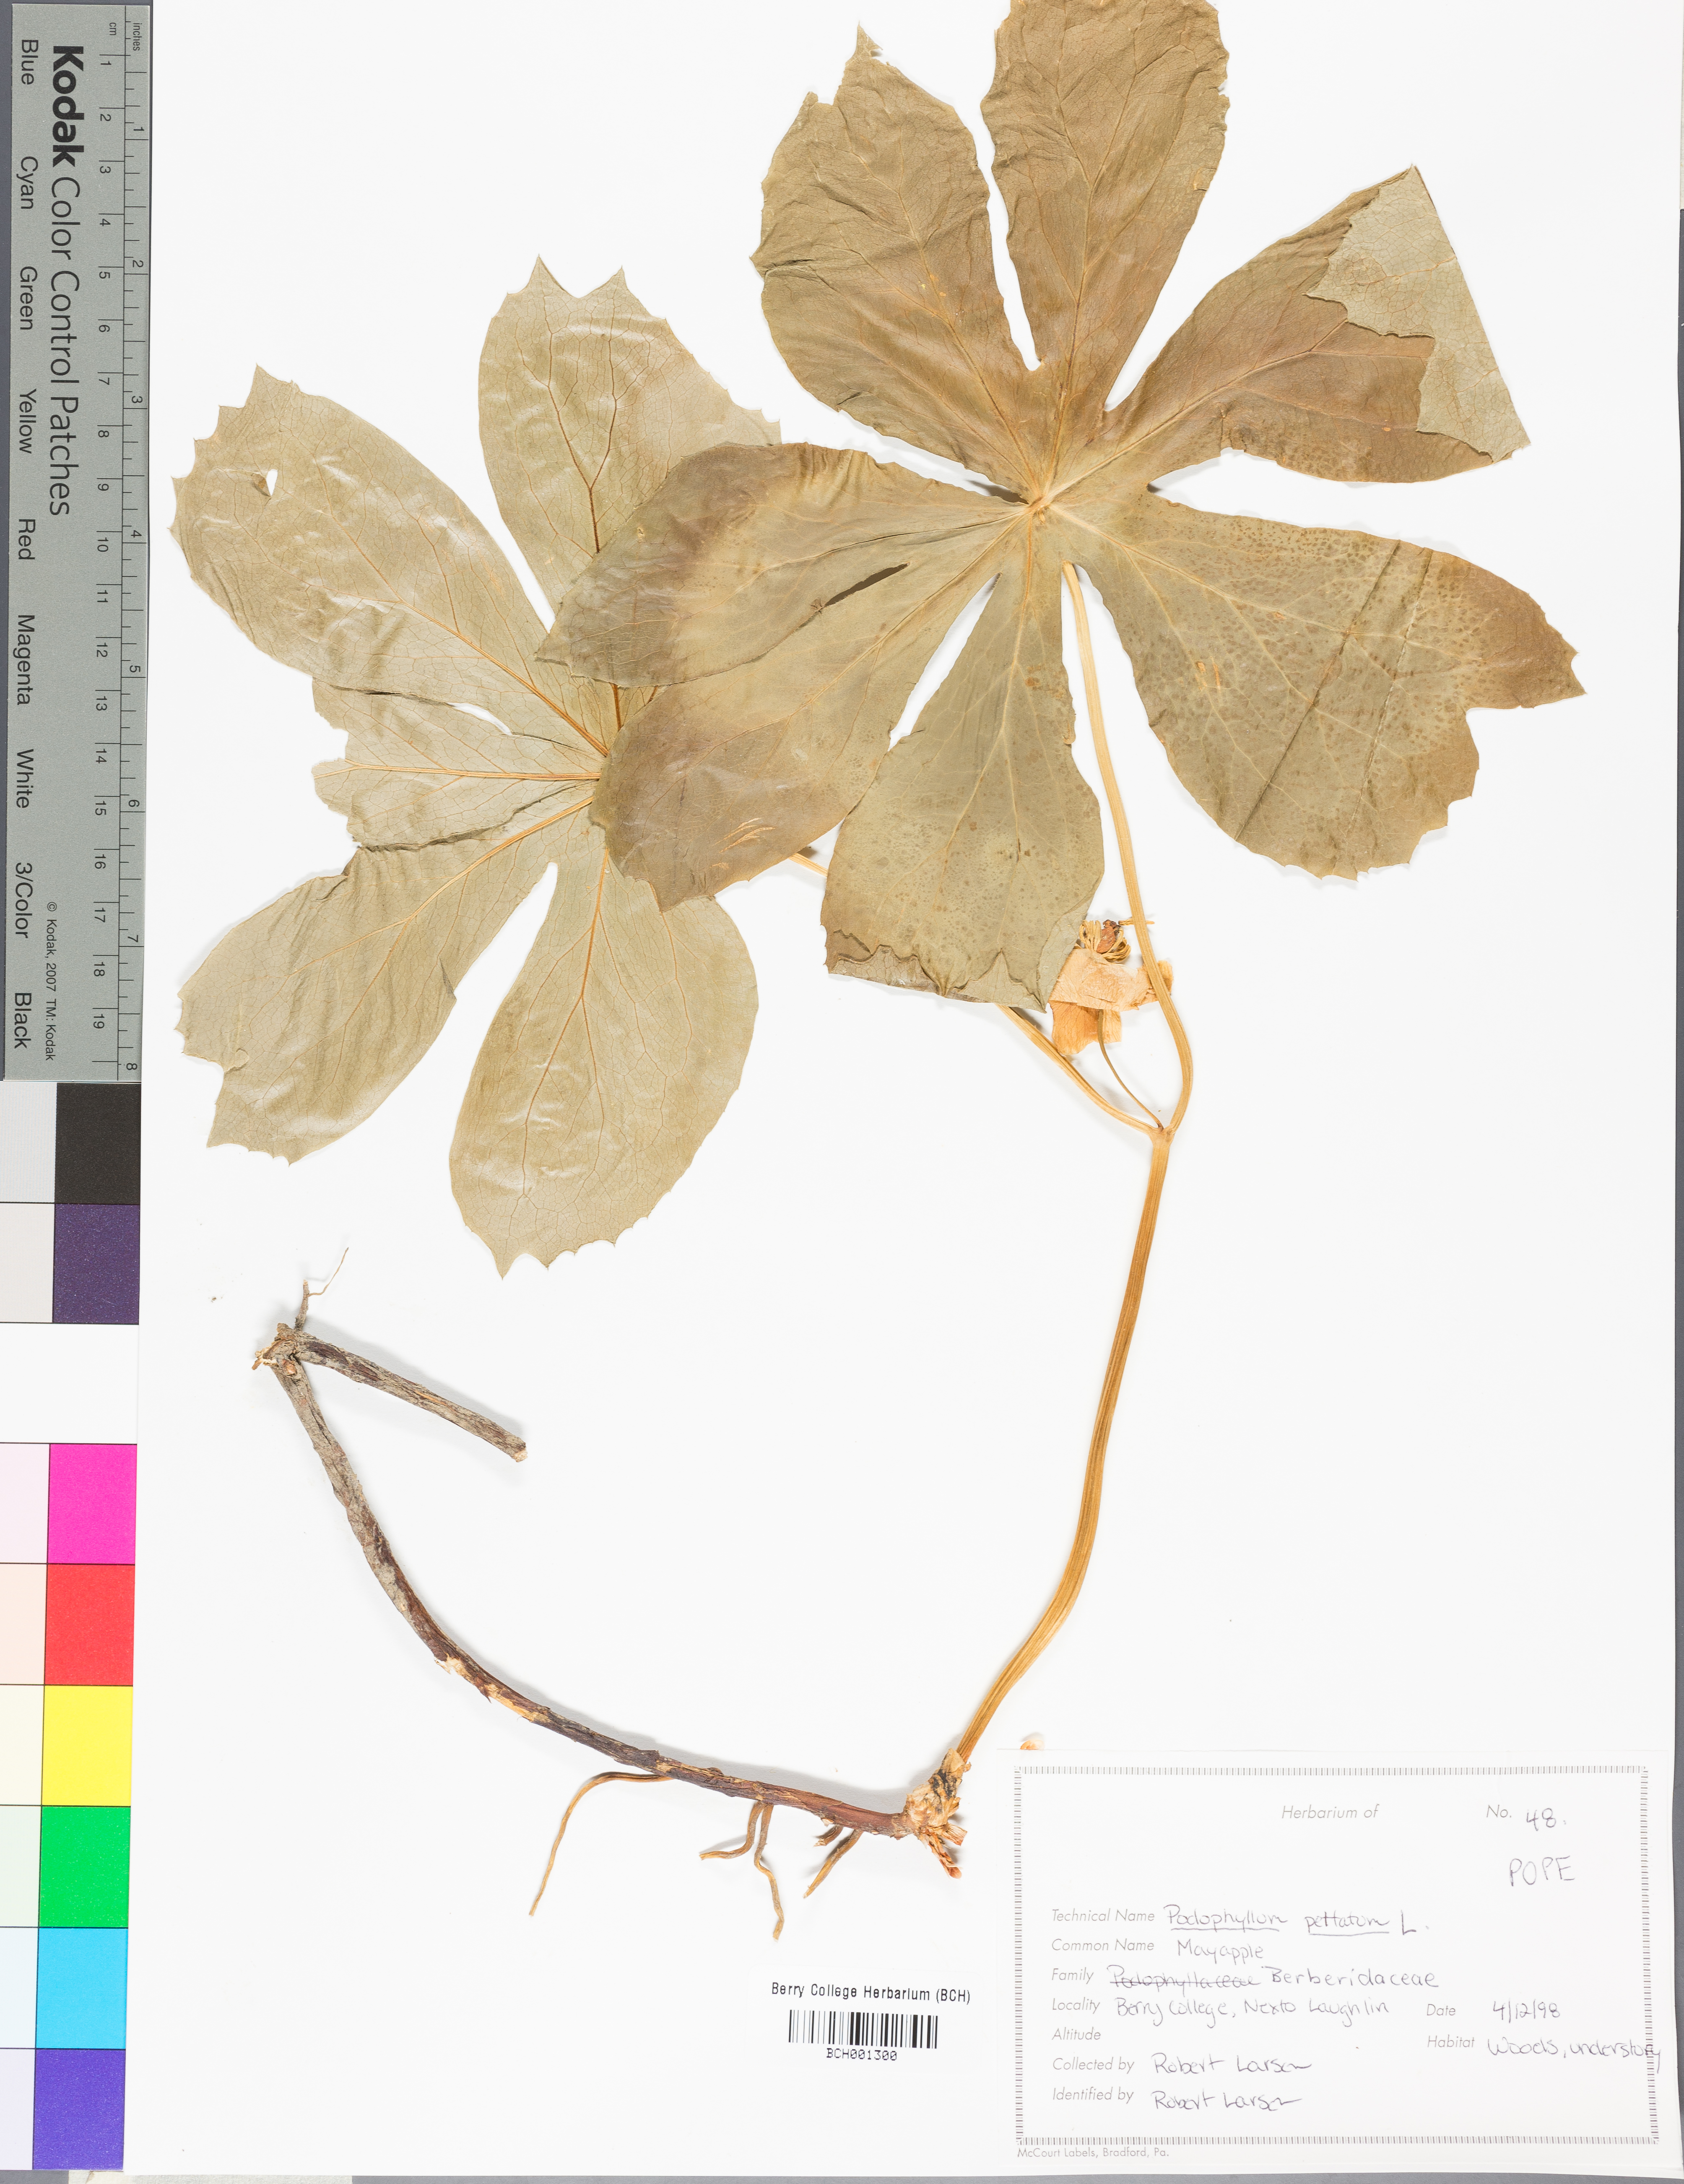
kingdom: Plantae
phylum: Tracheophyta
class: Magnoliopsida
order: Ranunculales
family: Berberidaceae
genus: Podophyllum
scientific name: Podophyllum peltatum
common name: Wild mandrake
